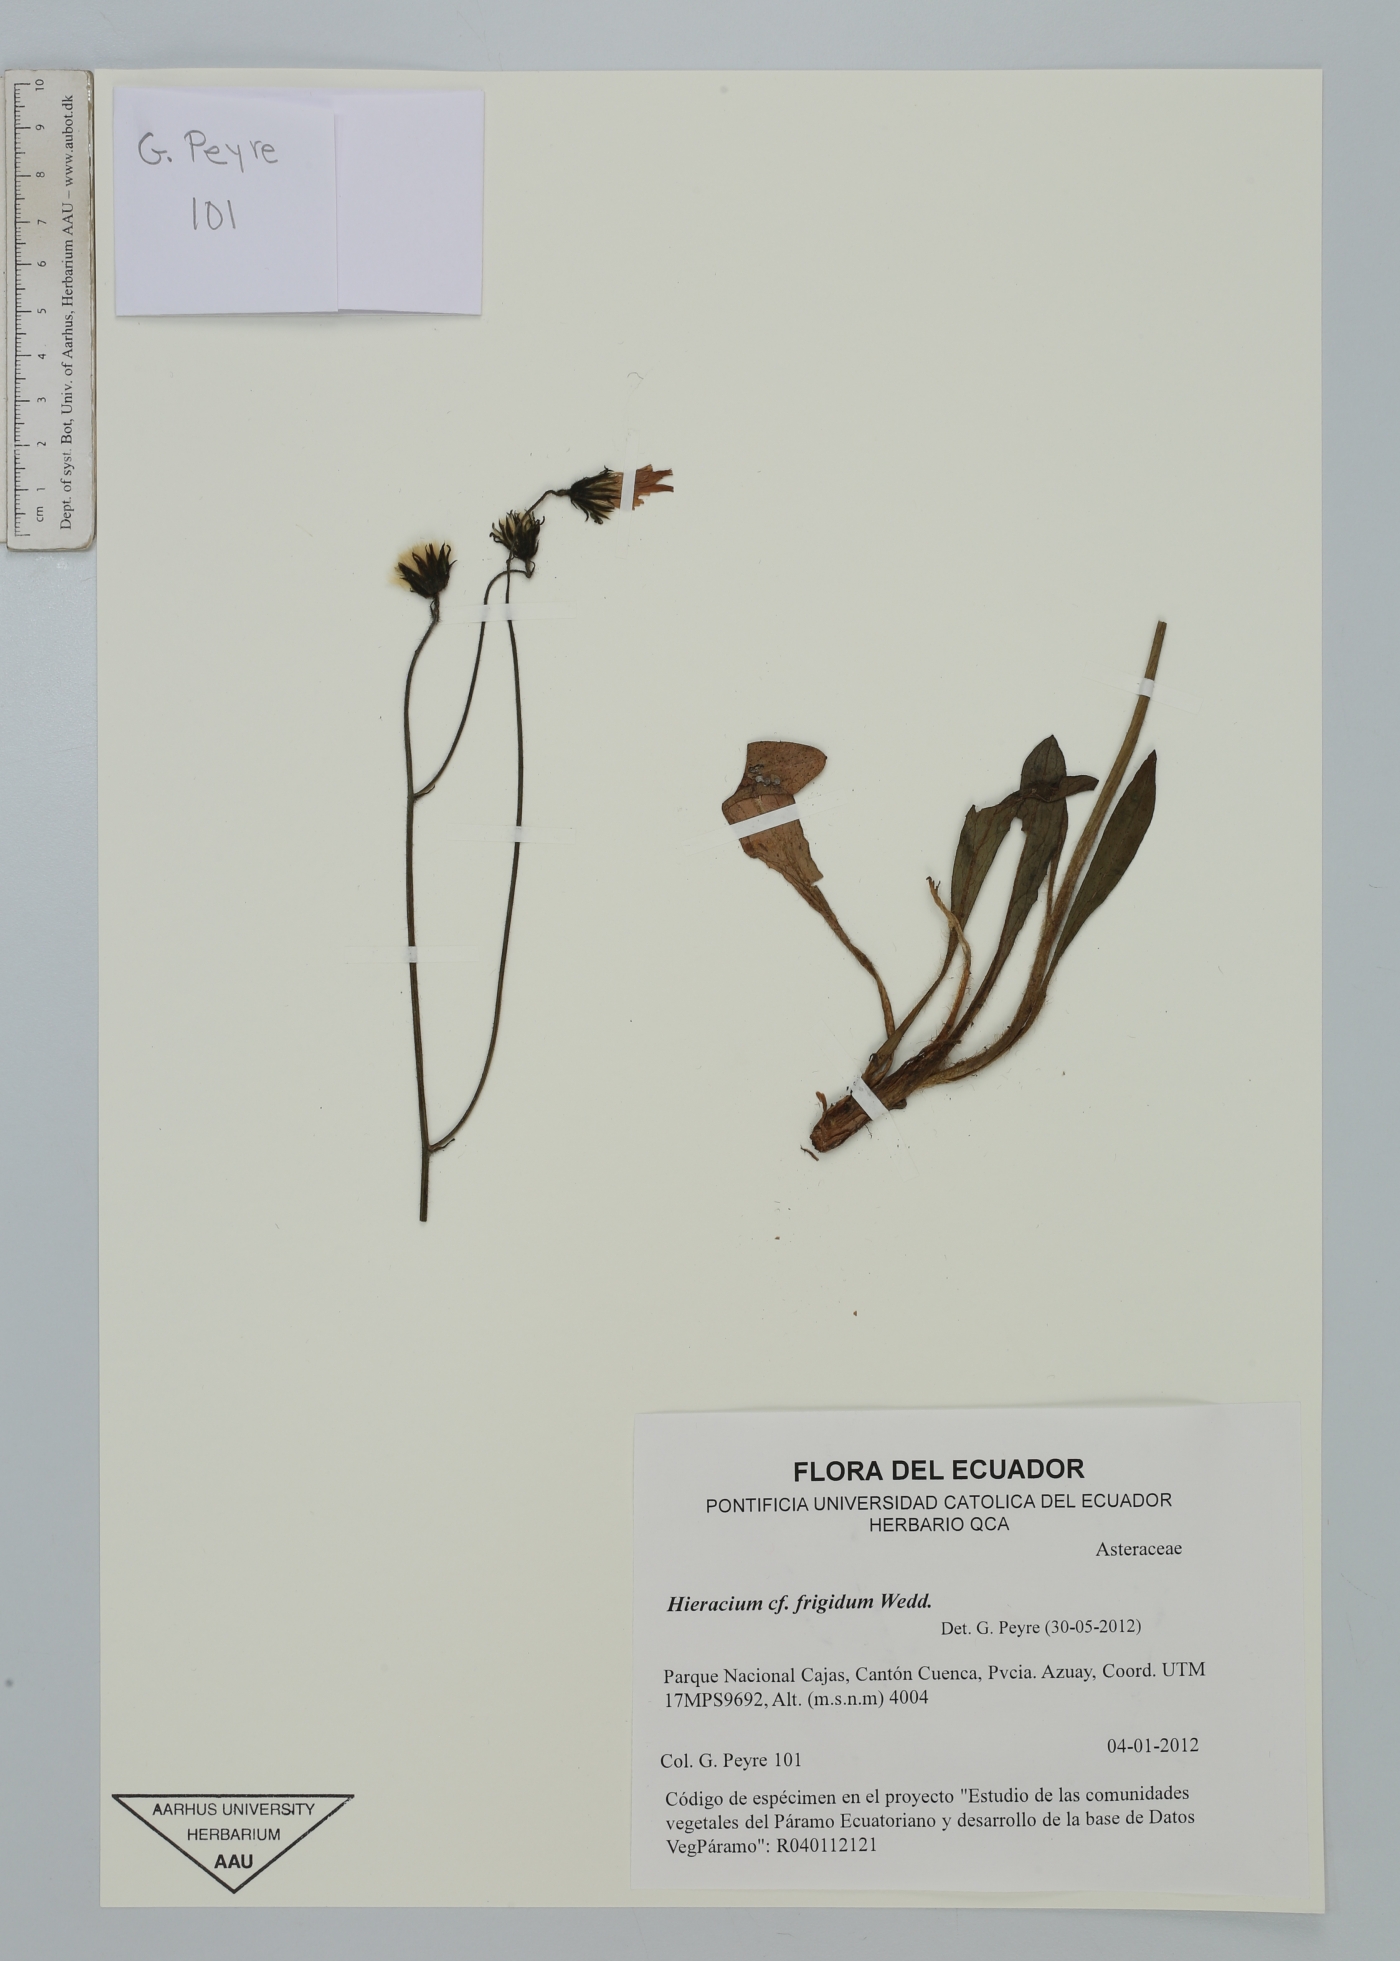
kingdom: Plantae
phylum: Tracheophyta
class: Magnoliopsida
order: Asterales
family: Asteraceae
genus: Hieracium
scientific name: Hieracium jubatum
